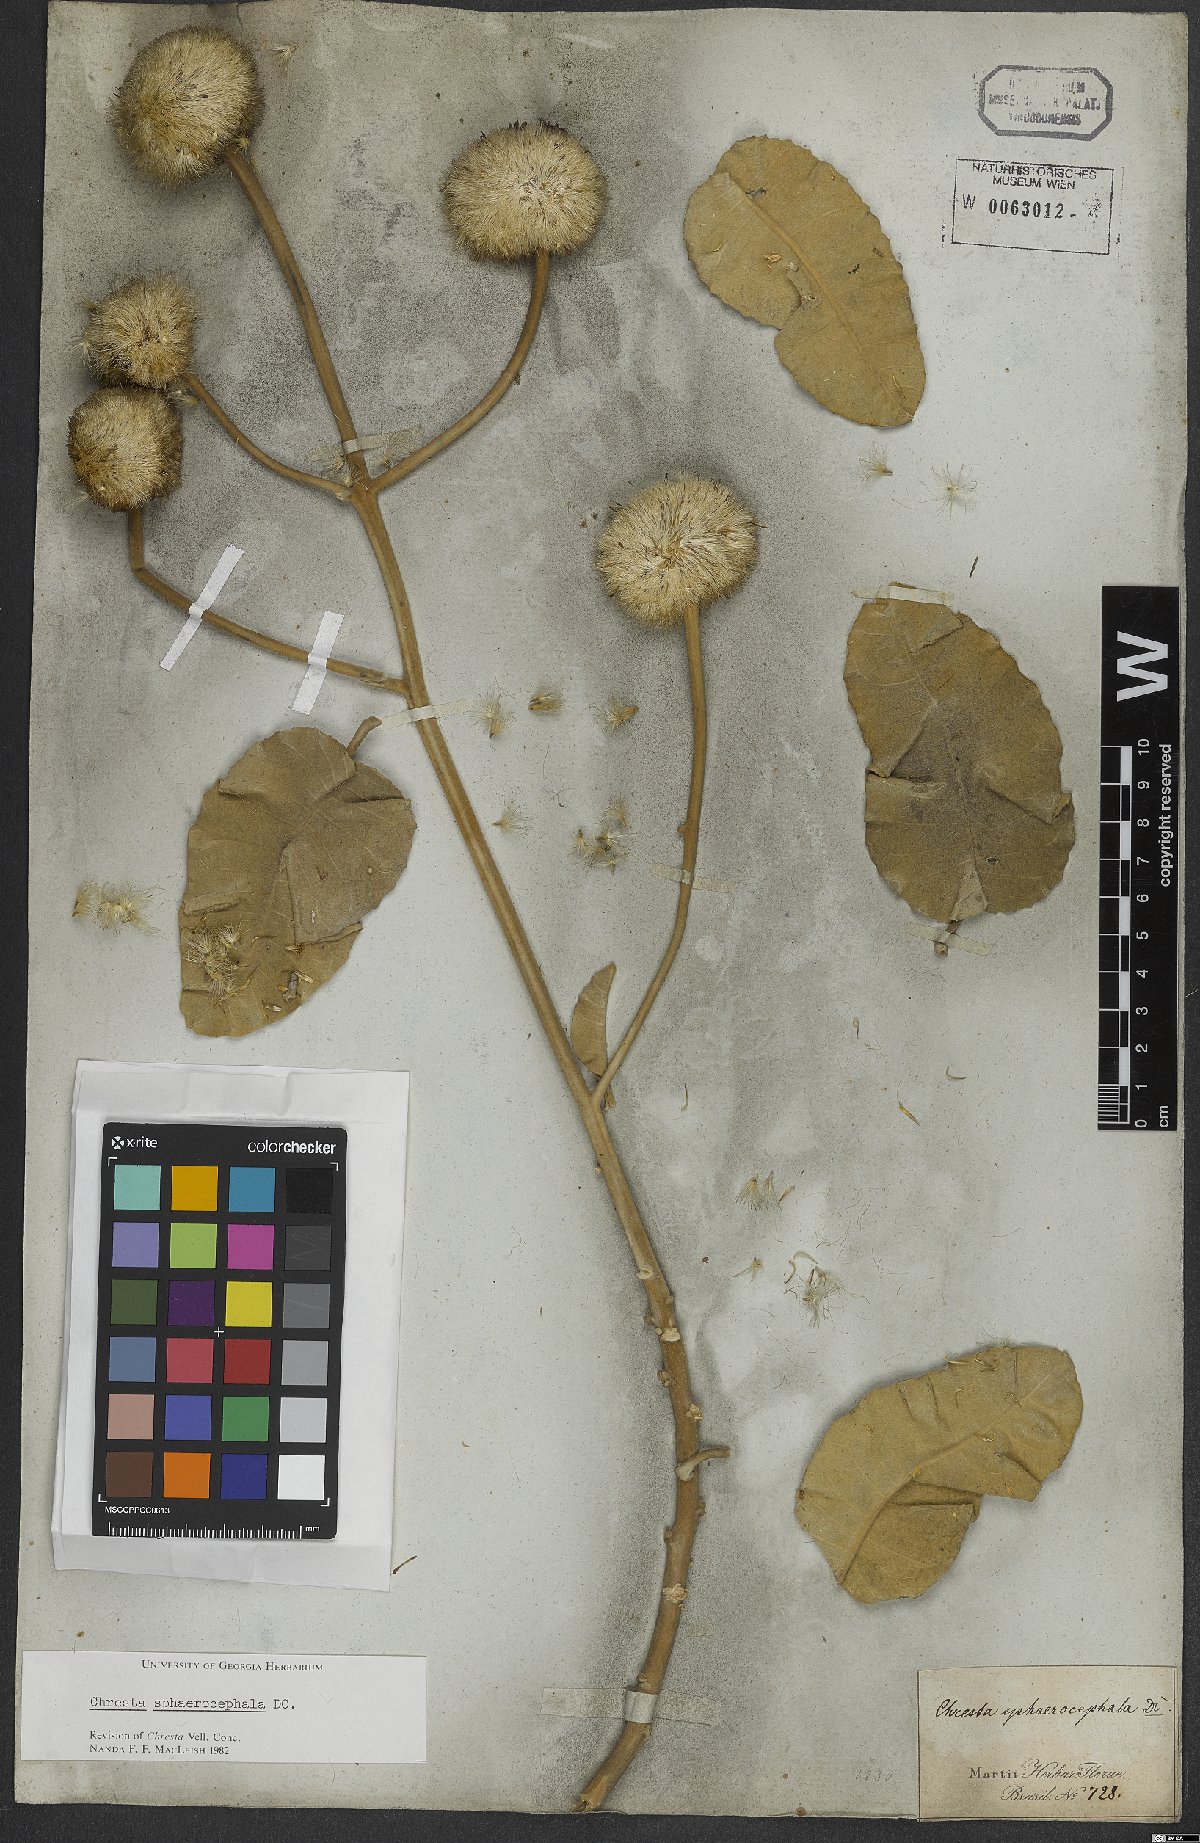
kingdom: Plantae
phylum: Tracheophyta
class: Magnoliopsida
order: Asterales
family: Asteraceae
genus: Chresta
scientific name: Chresta sphaerocephala
